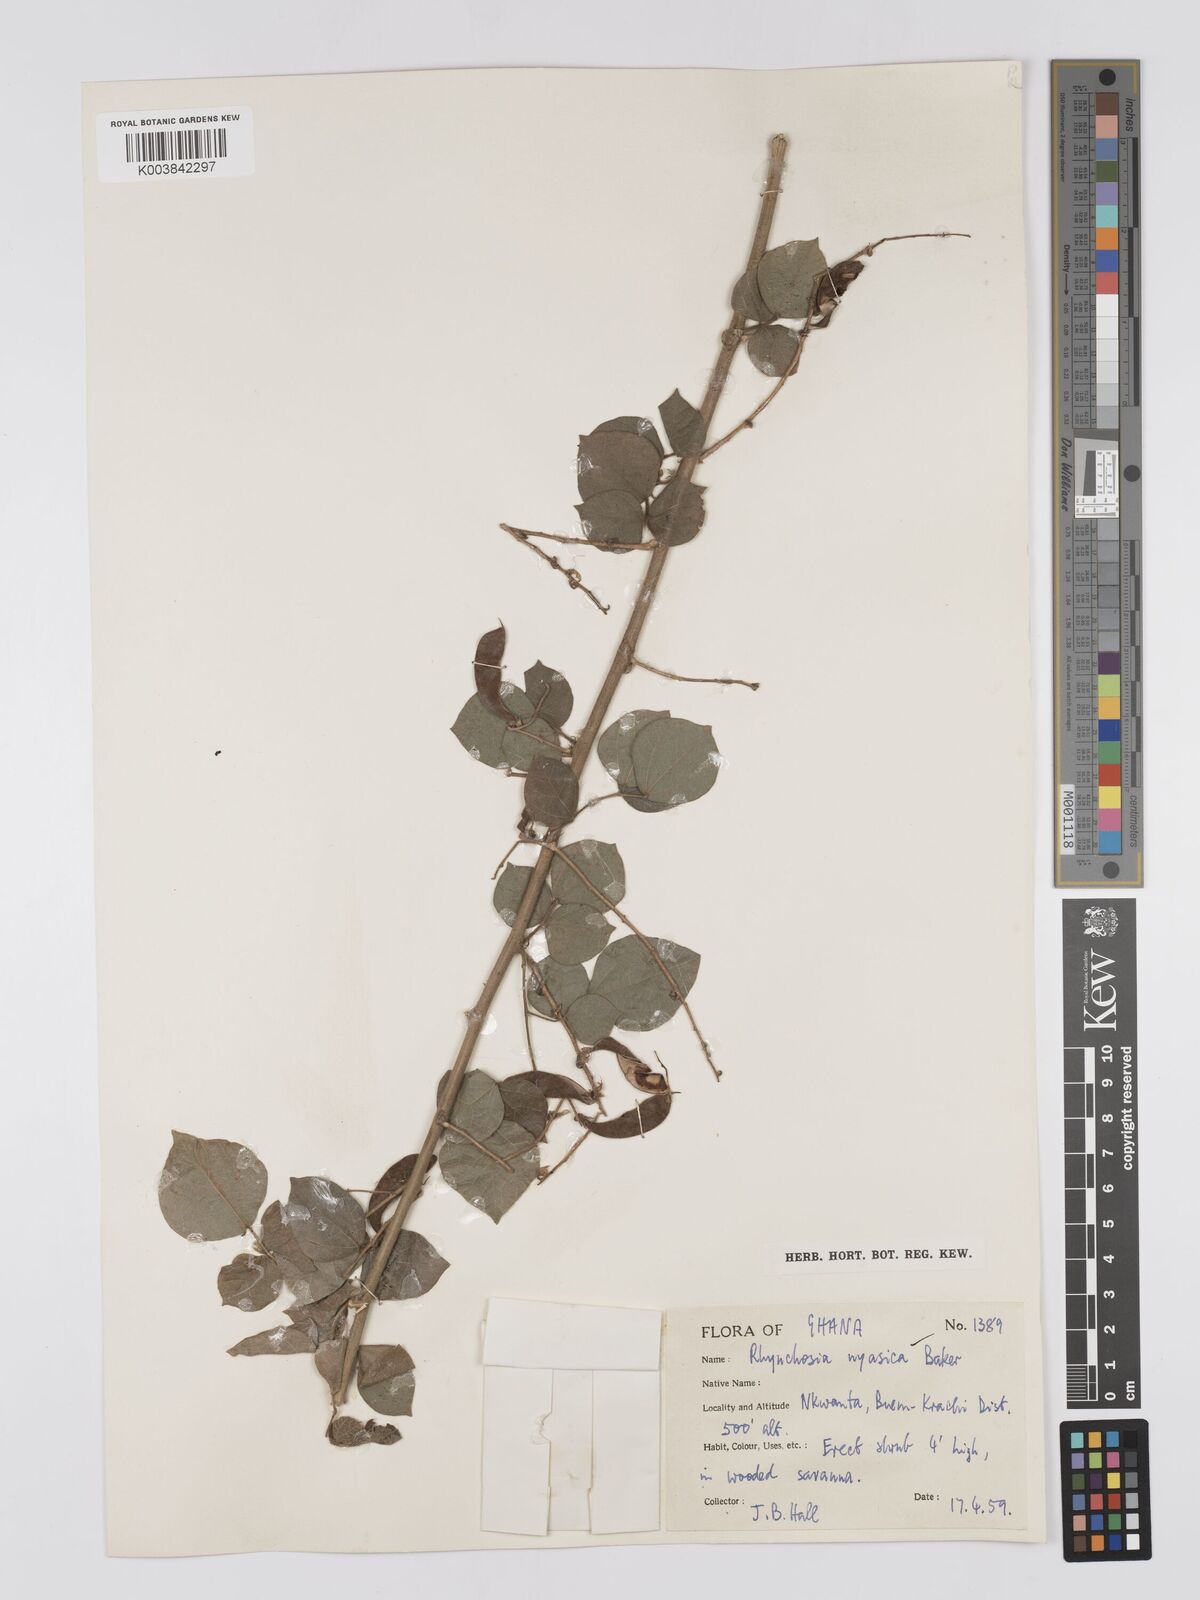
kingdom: Plantae
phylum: Tracheophyta
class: Magnoliopsida
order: Fabales
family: Fabaceae
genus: Rhynchosia
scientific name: Rhynchosia nyasica
